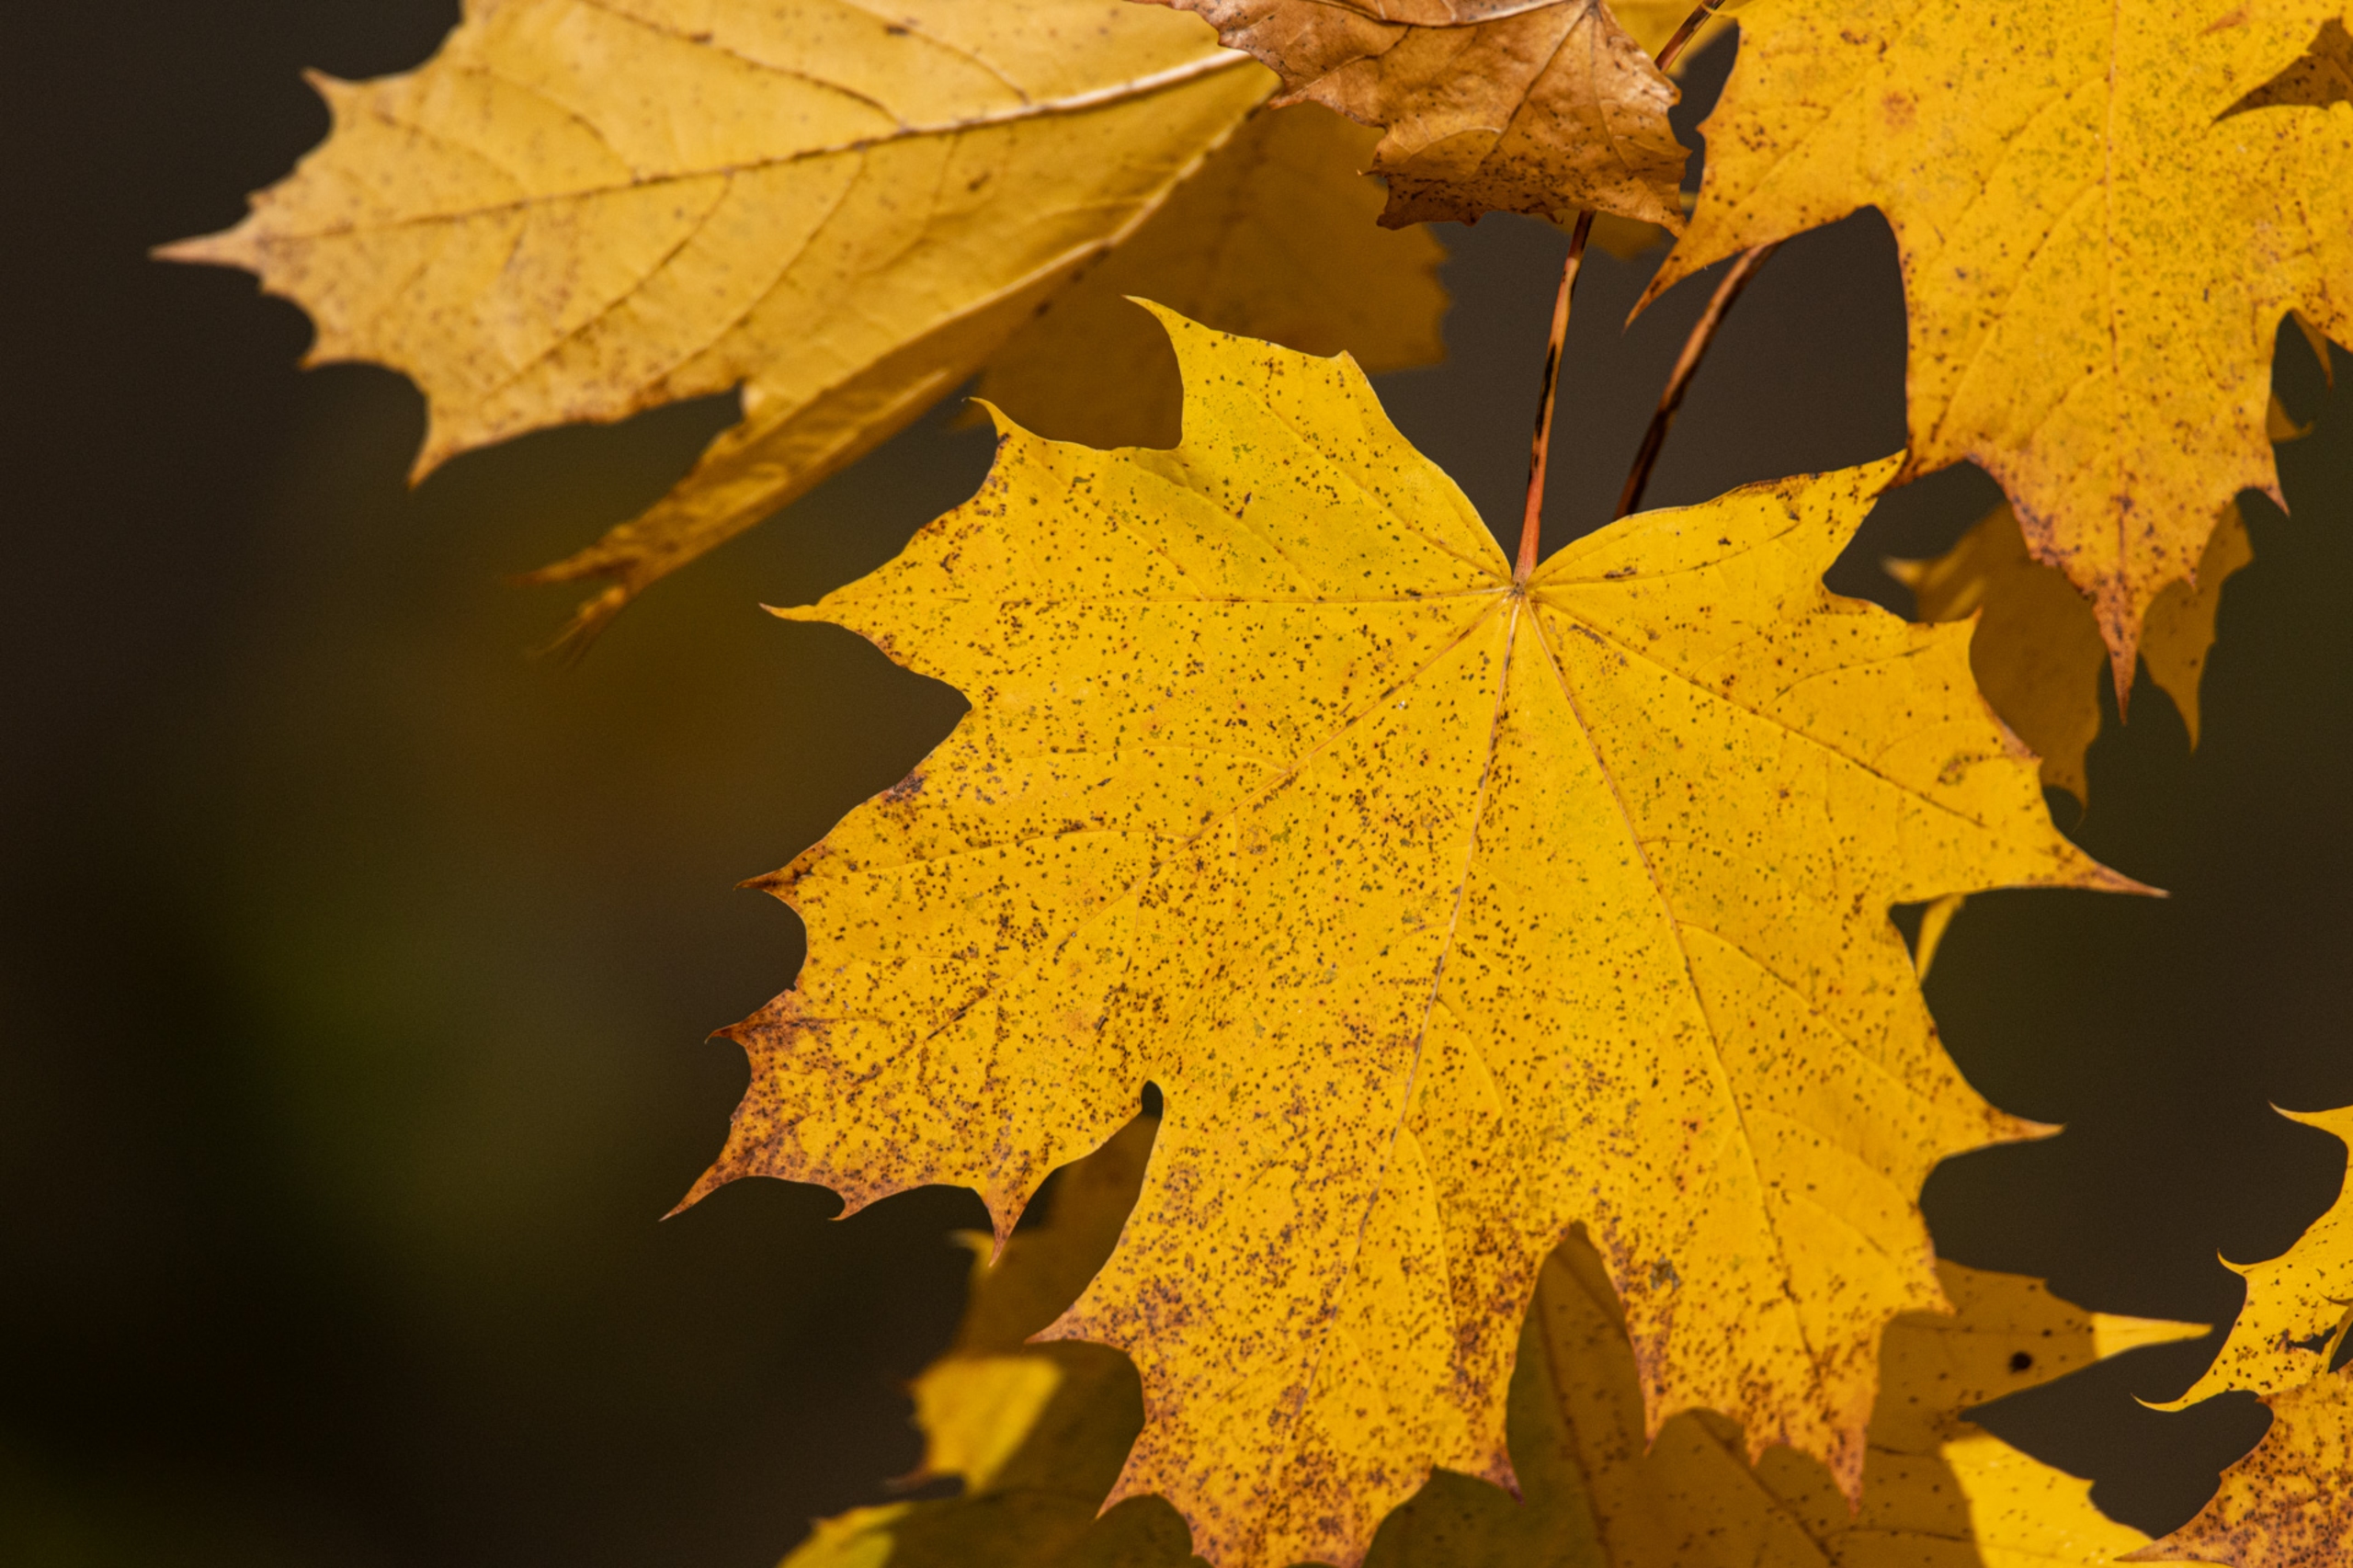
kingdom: Plantae
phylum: Tracheophyta
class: Magnoliopsida
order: Sapindales
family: Sapindaceae
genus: Acer
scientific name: Acer platanoides
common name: Spids-løn
